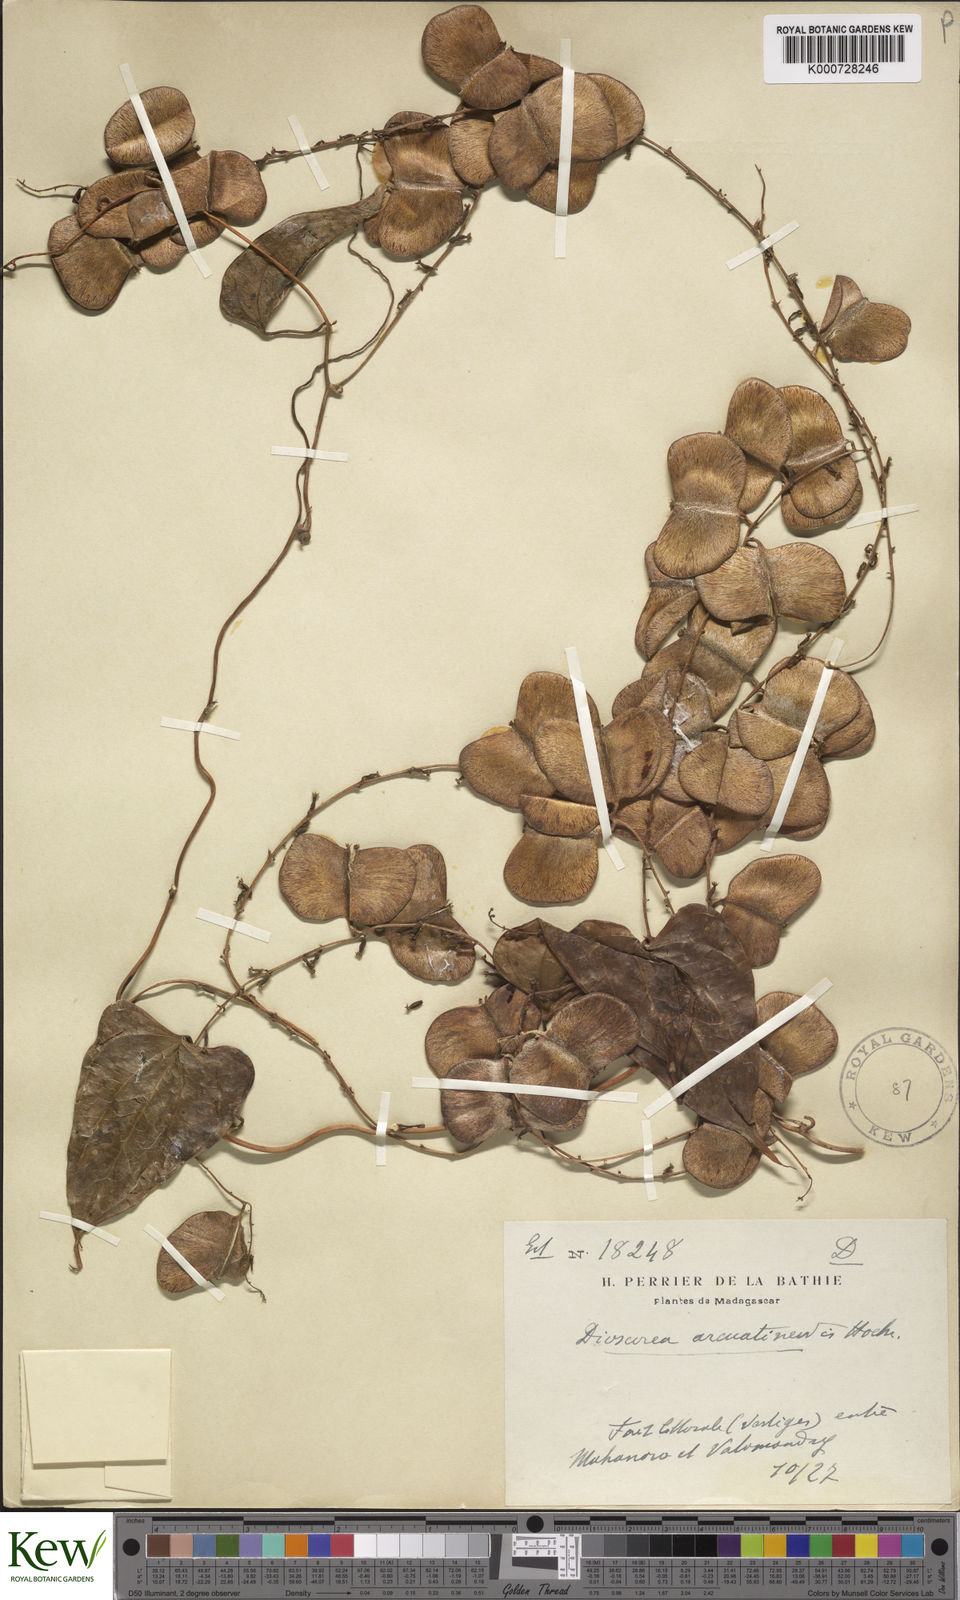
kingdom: Plantae
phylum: Tracheophyta
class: Liliopsida
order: Dioscoreales
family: Dioscoreaceae
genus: Dioscorea
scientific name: Dioscorea arcuatinervis
